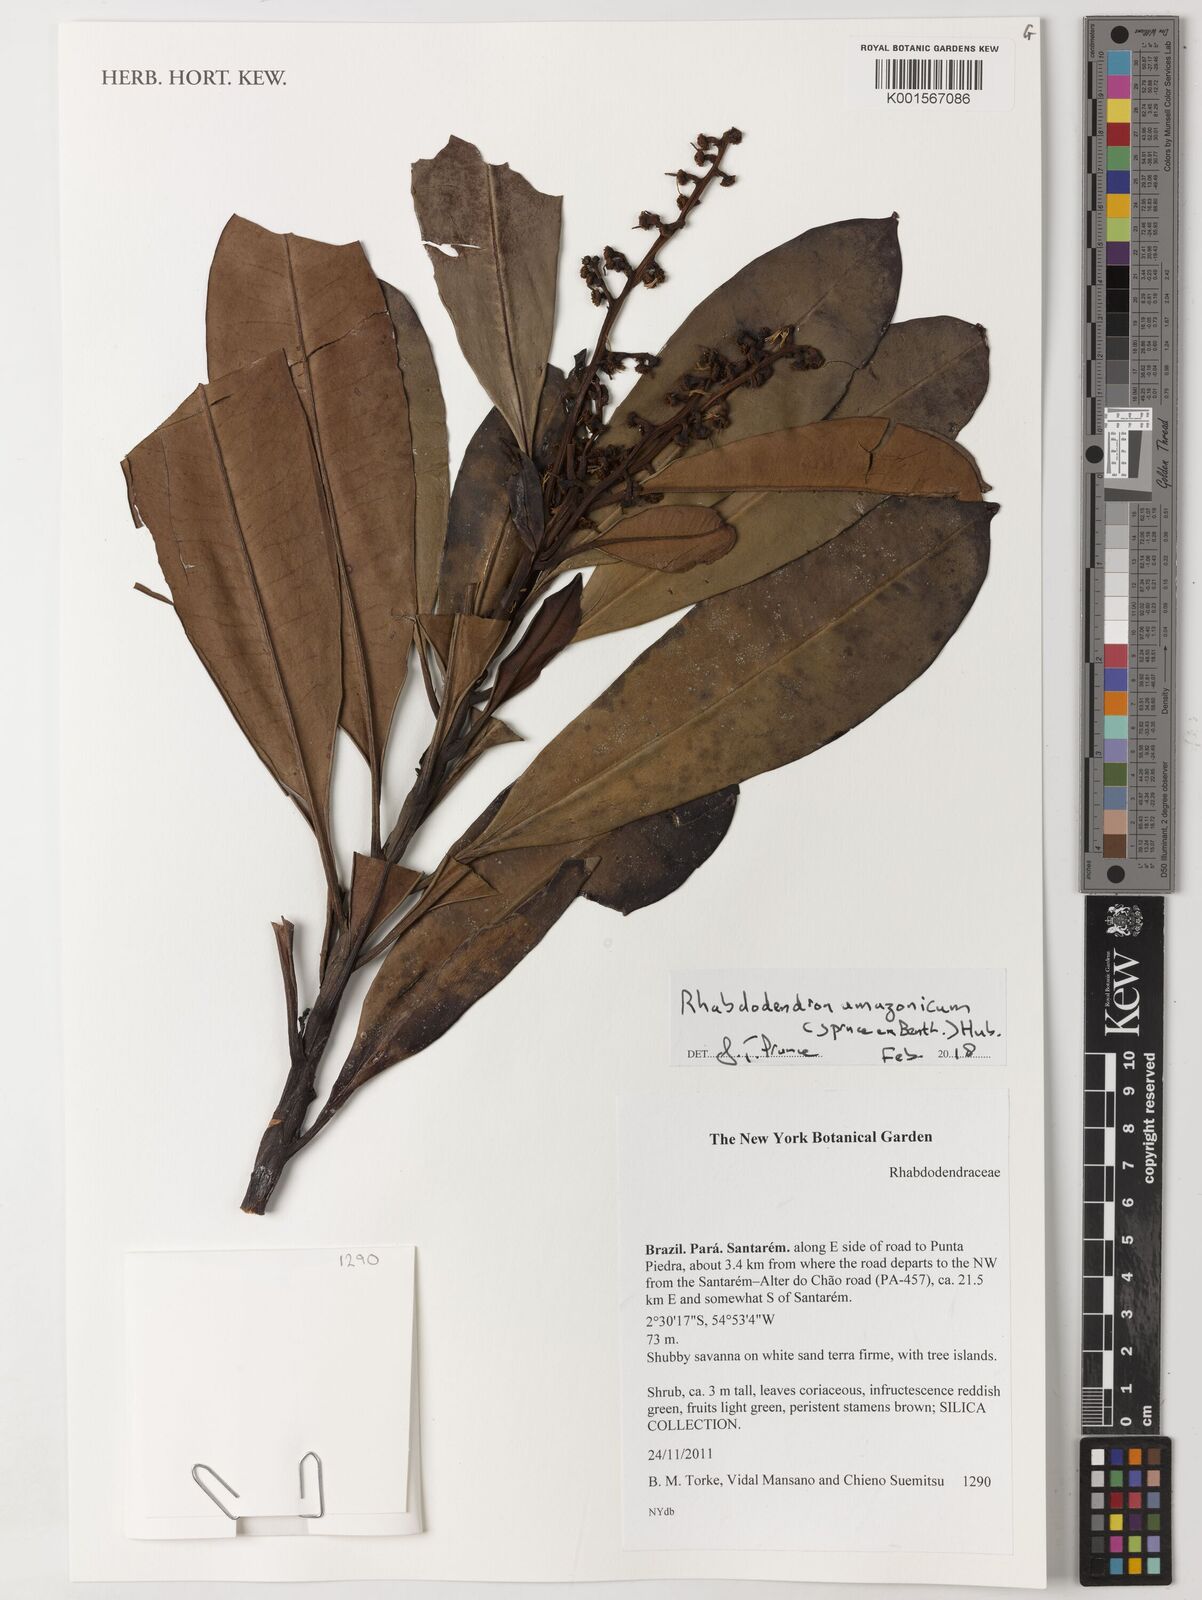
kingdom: Plantae
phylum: Tracheophyta
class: Magnoliopsida
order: Caryophyllales
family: Rhabdodendraceae
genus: Rhabdodendron
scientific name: Rhabdodendron amazonicum
